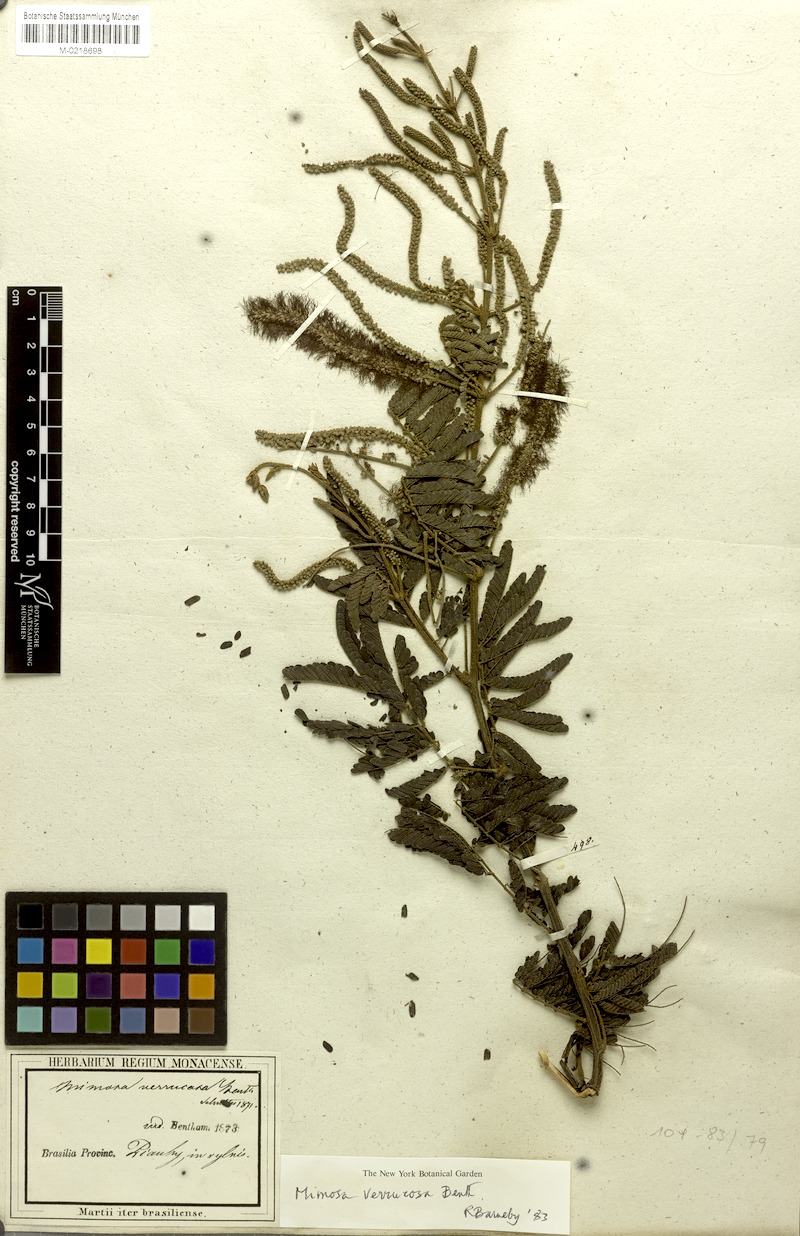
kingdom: Plantae
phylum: Tracheophyta
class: Magnoliopsida
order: Fabales
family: Fabaceae
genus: Mimosa
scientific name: Mimosa verrucosa
